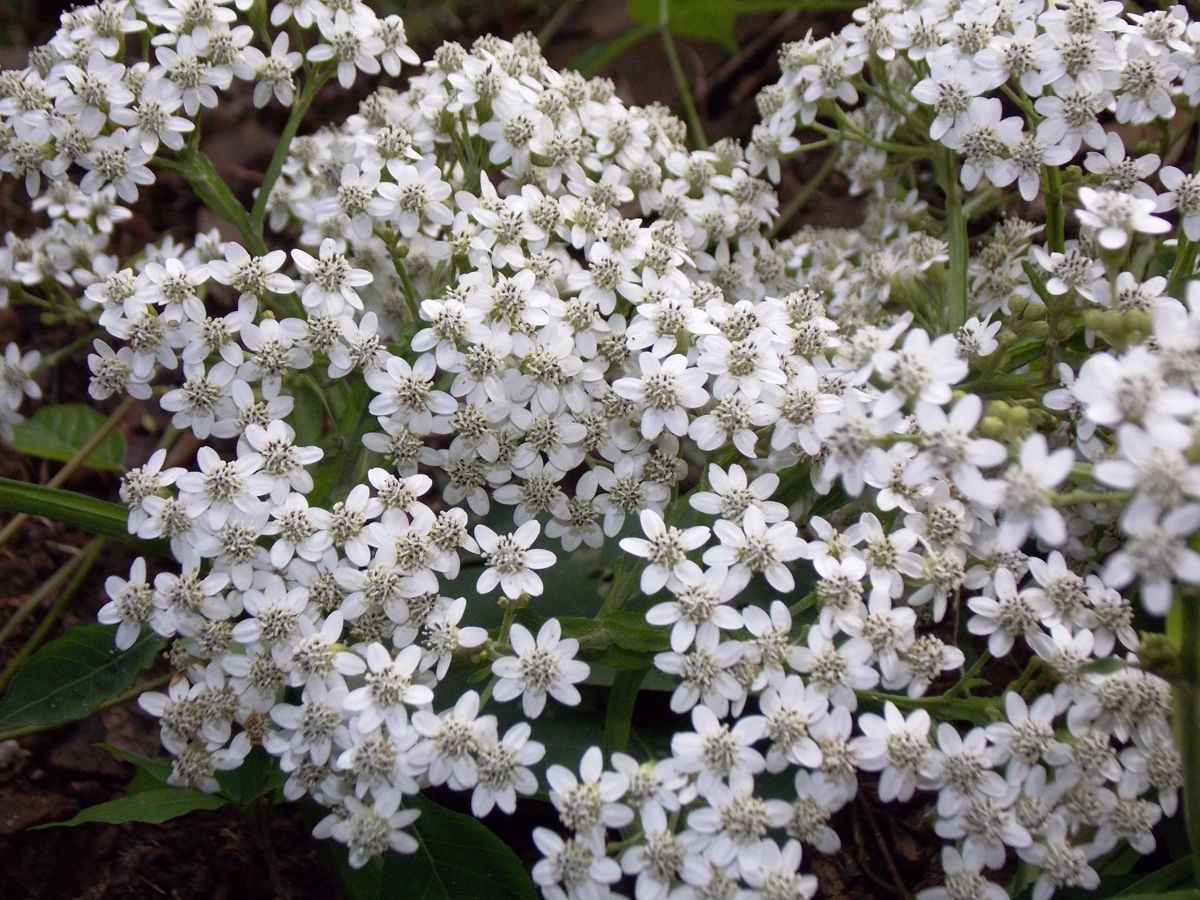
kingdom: Plantae
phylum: Tracheophyta
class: Magnoliopsida
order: Asterales
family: Asteraceae
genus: Verbesina
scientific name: Verbesina pallens
